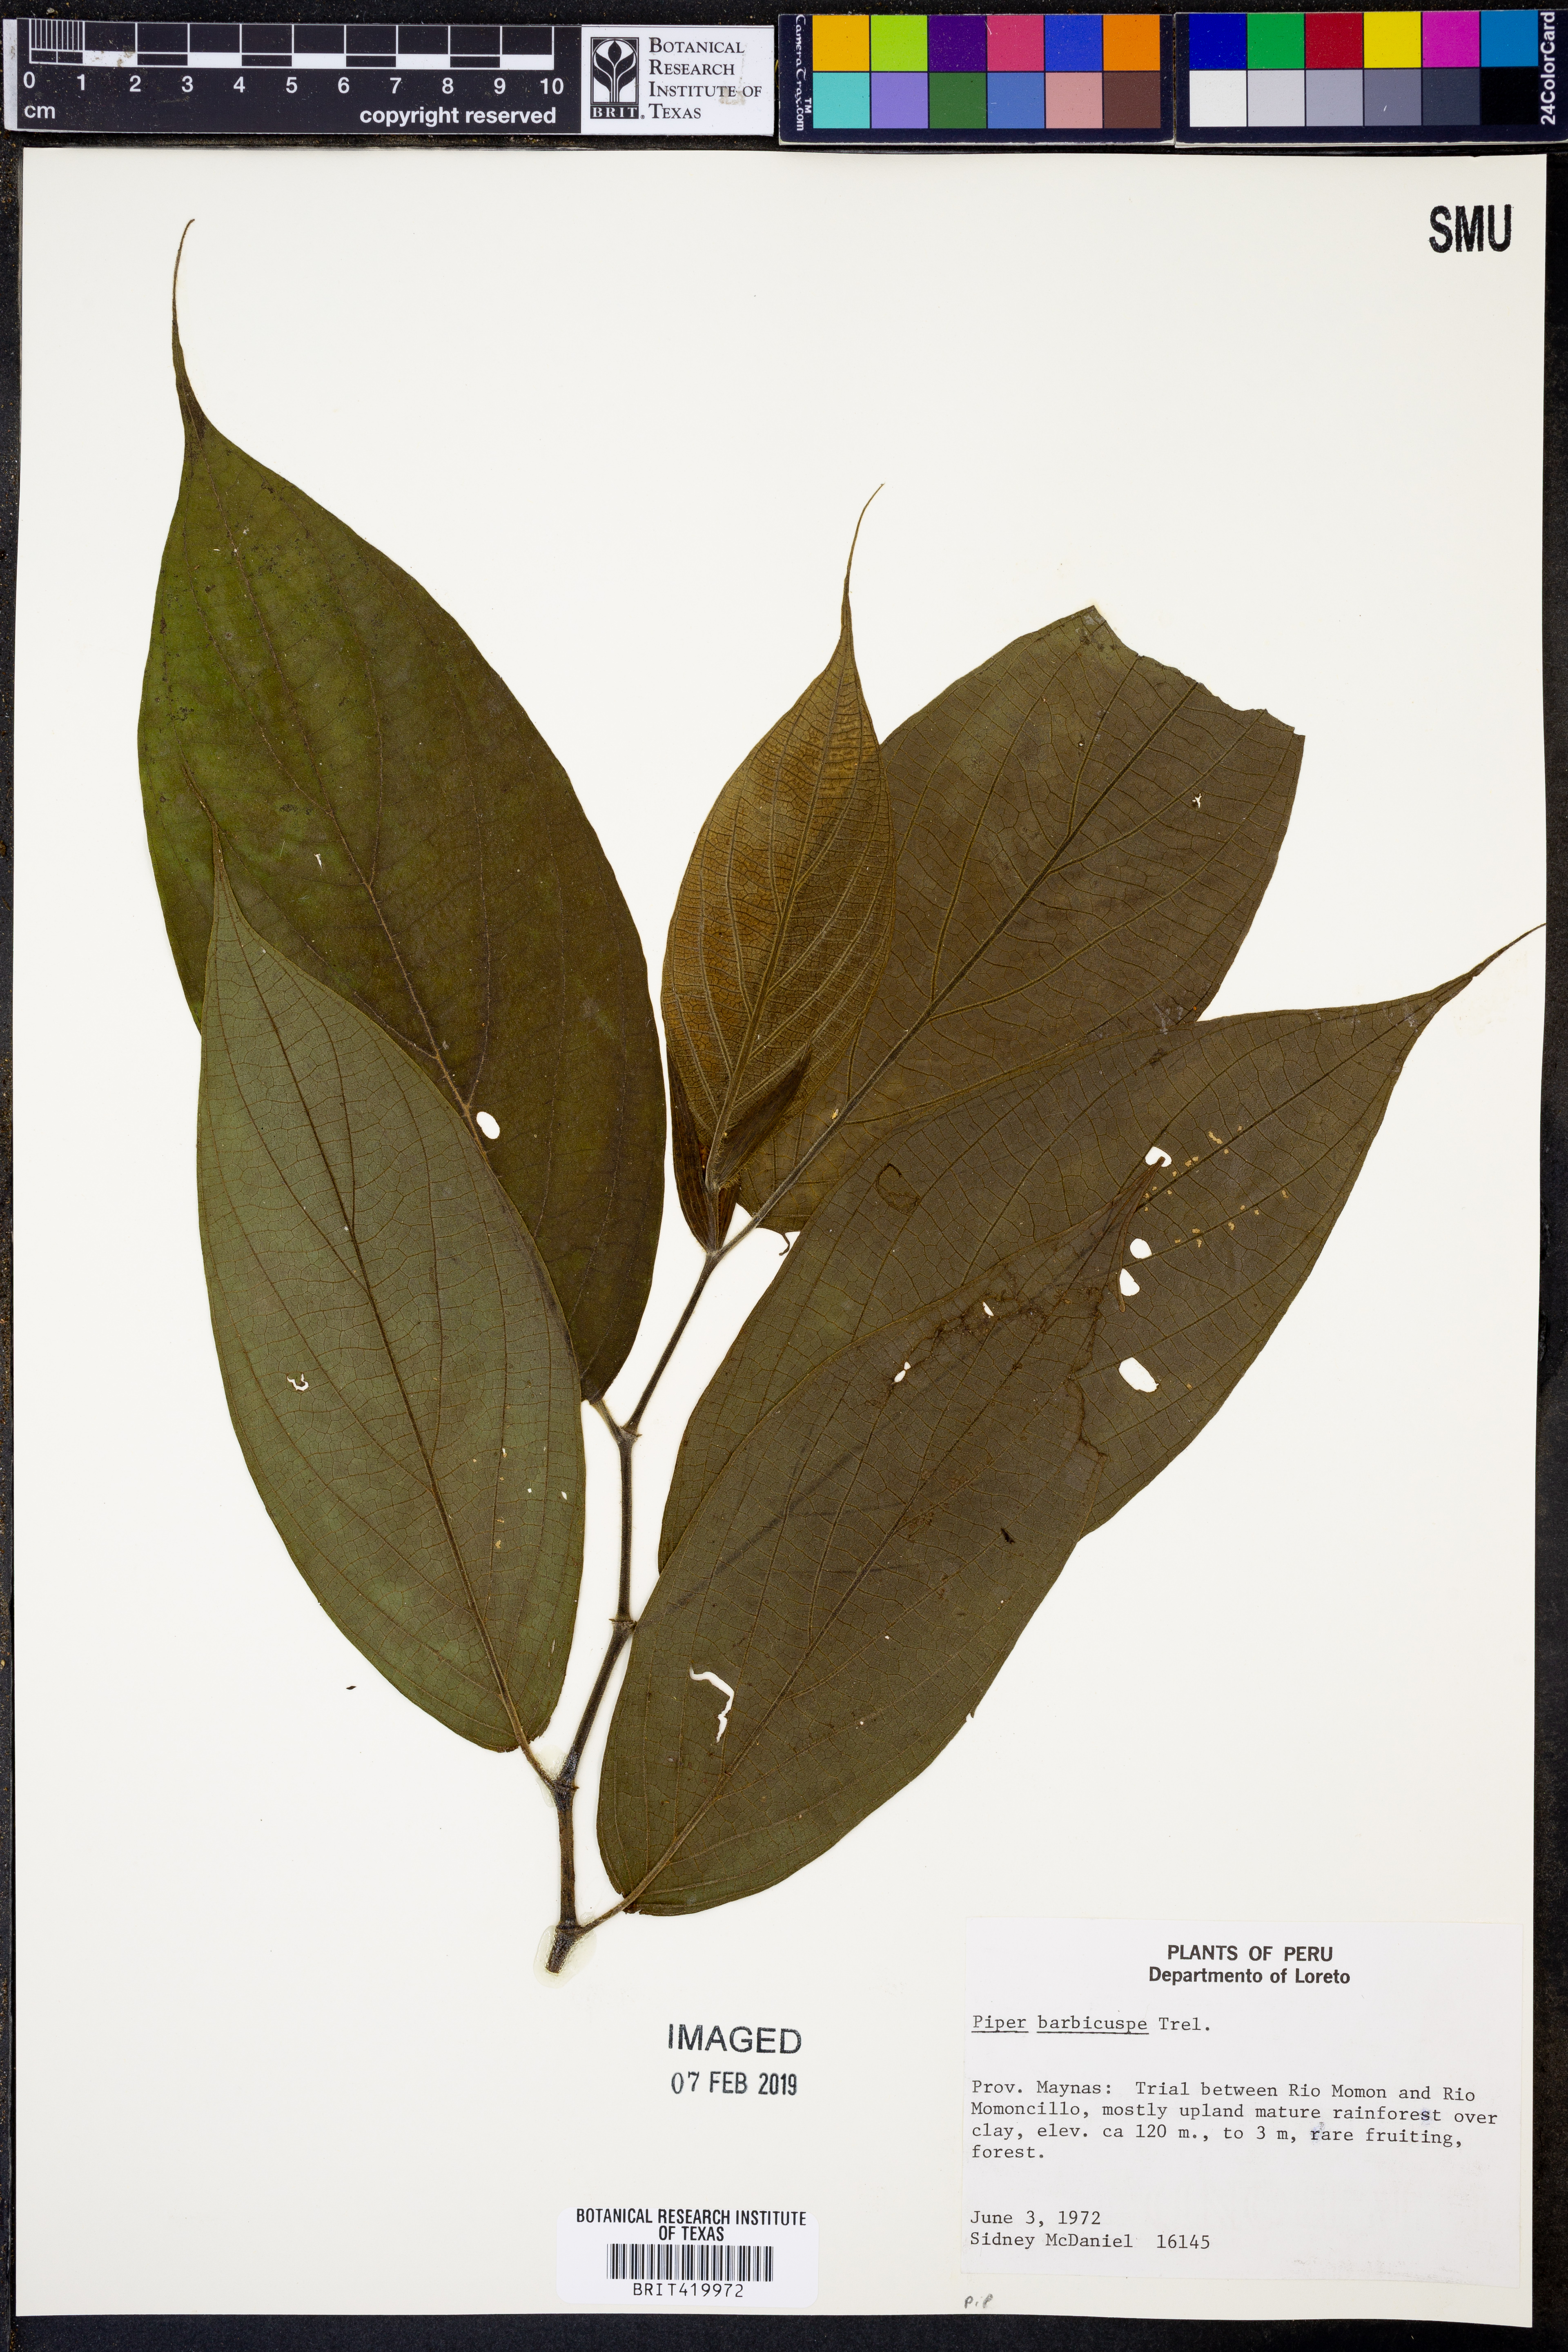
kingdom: Plantae
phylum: Tracheophyta
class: Magnoliopsida
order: Piperales
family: Piperaceae
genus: Piper
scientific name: Piper barbicuspe
